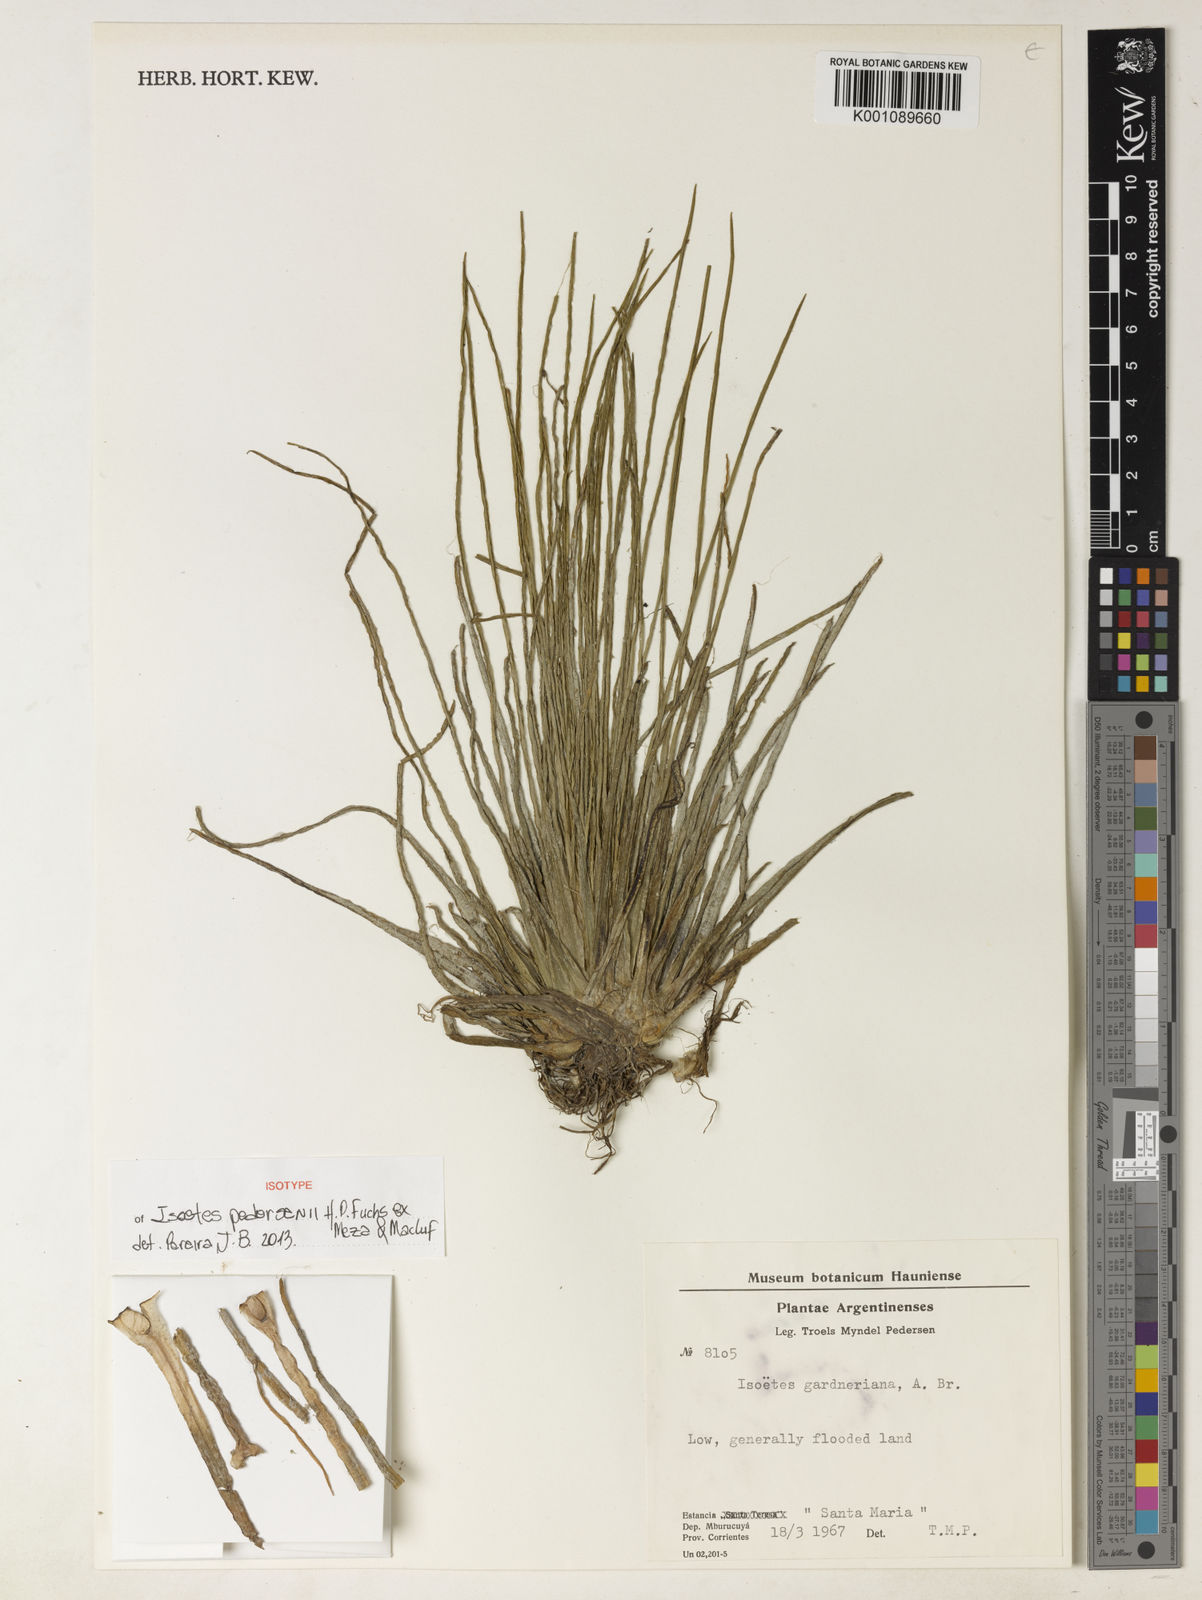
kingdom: Plantae
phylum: Tracheophyta
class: Lycopodiopsida
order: Isoetales
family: Isoetaceae
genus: Isoetes
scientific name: Isoetes pedersenii
